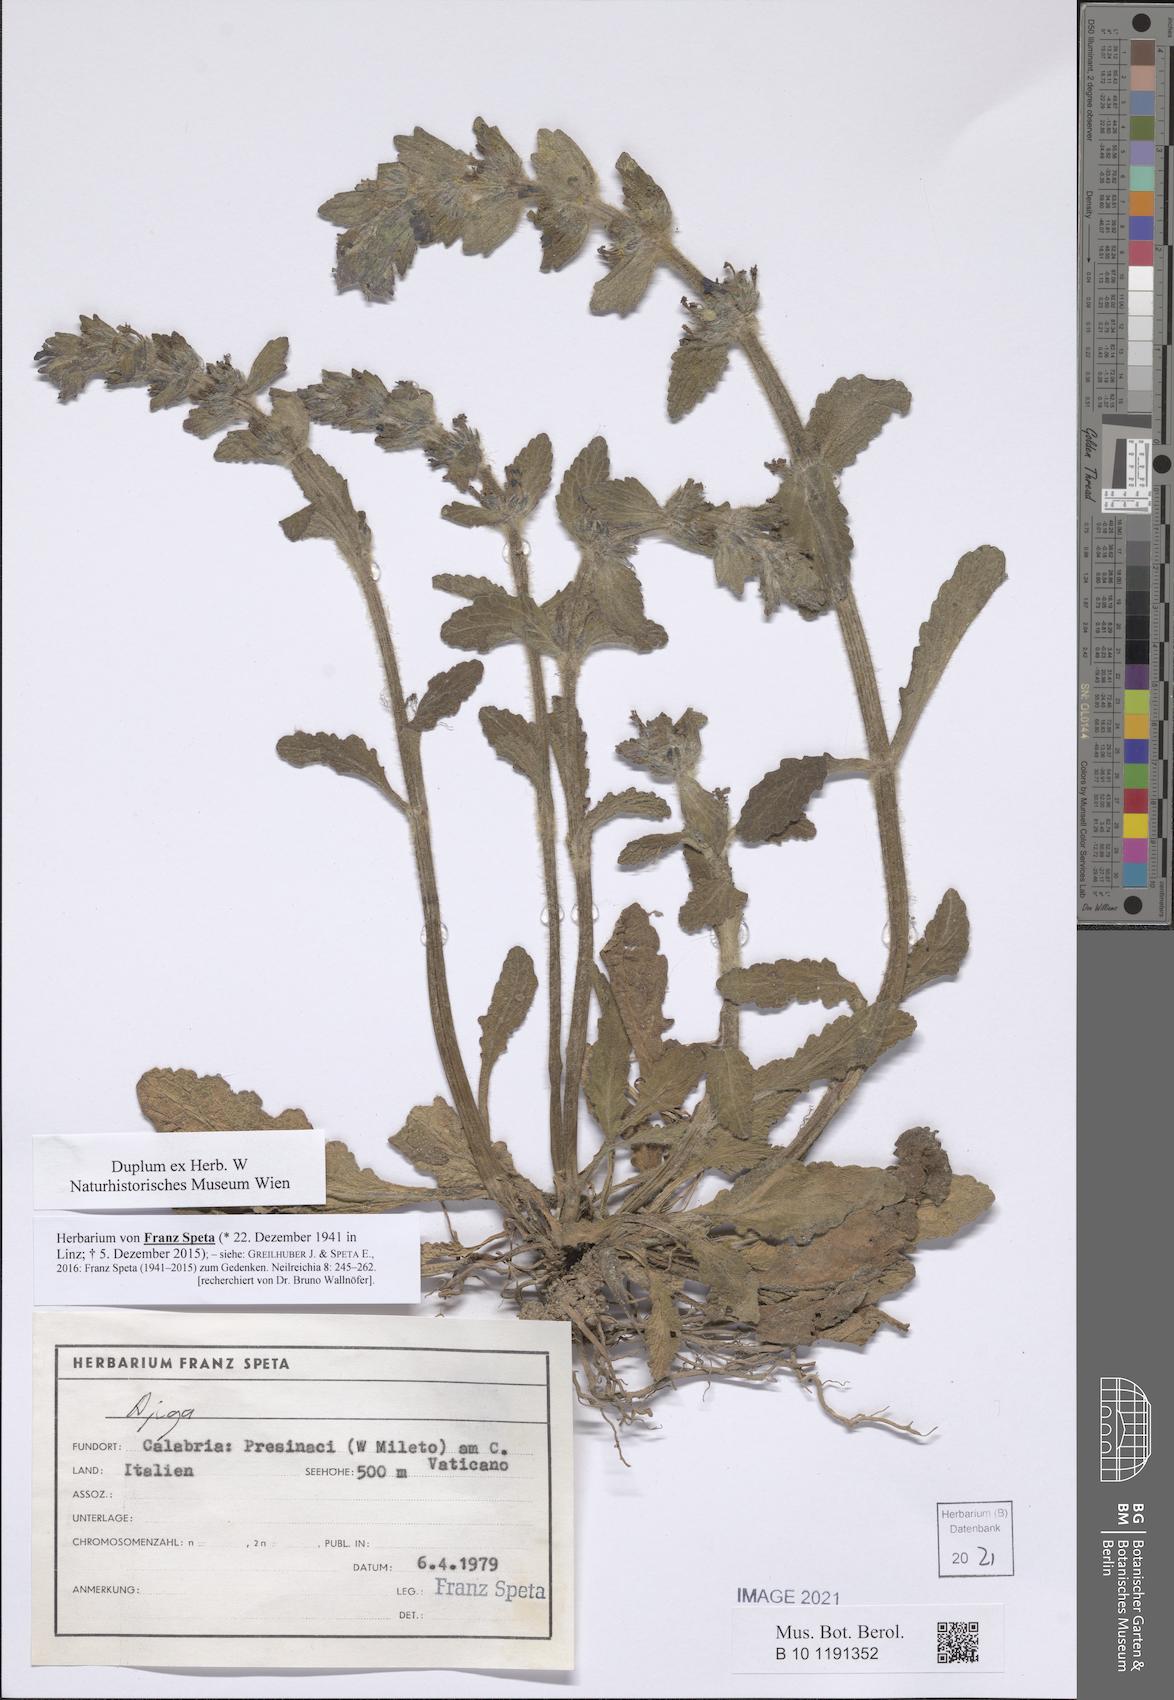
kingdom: Plantae
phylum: Tracheophyta
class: Magnoliopsida
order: Lamiales
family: Lamiaceae
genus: Ajuga
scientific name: Ajuga
